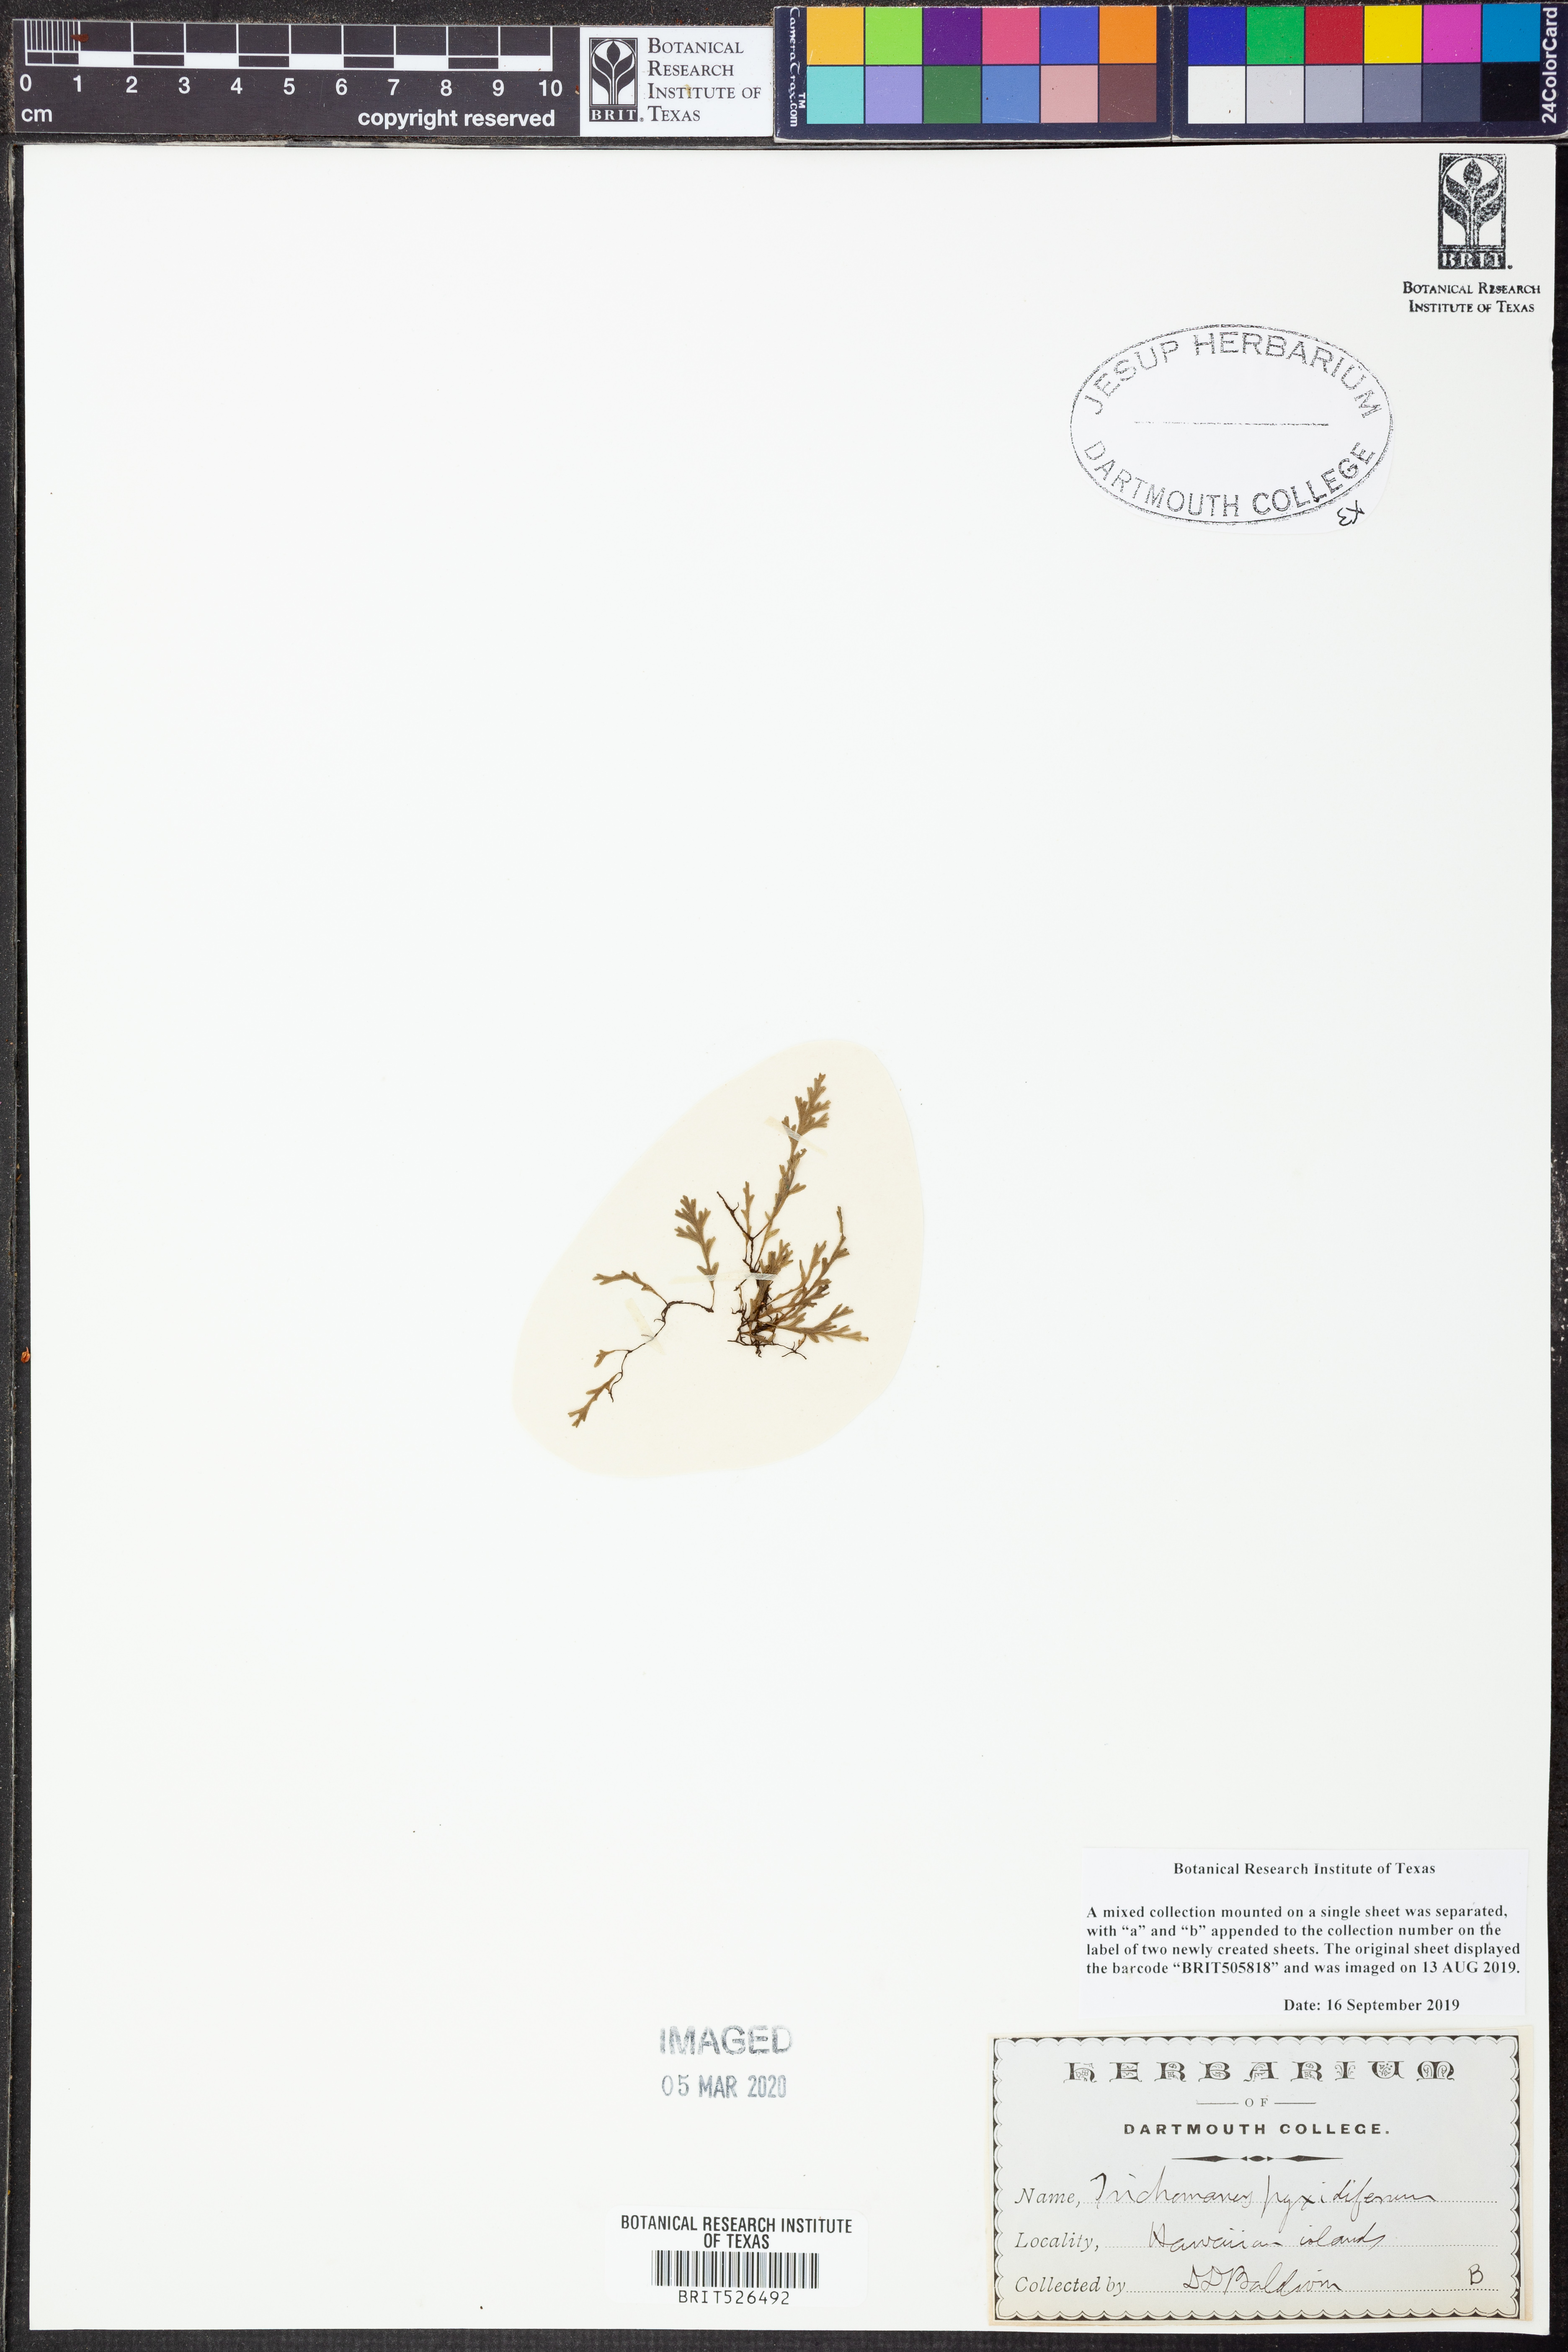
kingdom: Plantae
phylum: Tracheophyta
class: Polypodiopsida
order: Hymenophyllales
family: Hymenophyllaceae
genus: Polyphlebium
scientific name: Polyphlebium capillaceum
